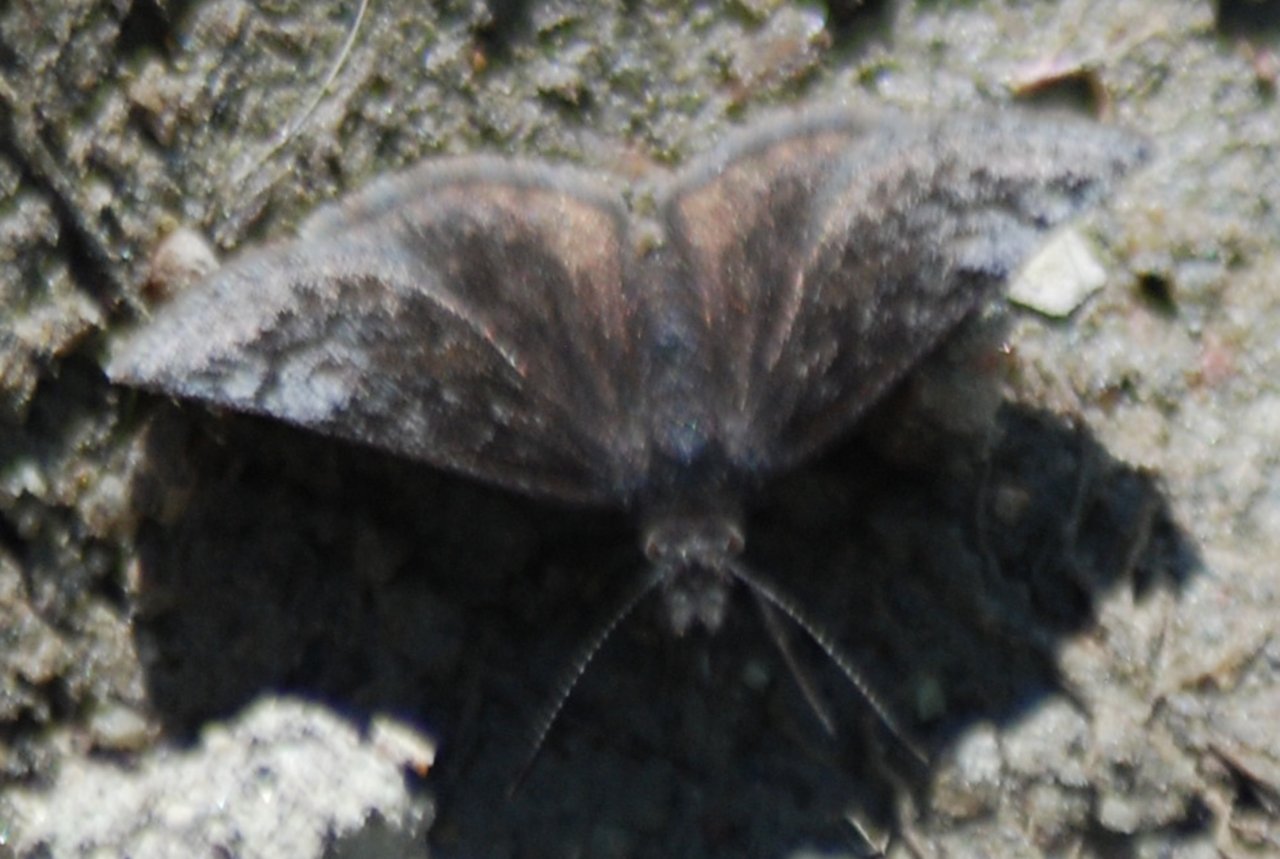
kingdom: Animalia
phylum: Arthropoda
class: Insecta
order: Lepidoptera
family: Hesperiidae
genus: Erynnis
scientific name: Erynnis icelus
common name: Dreamy Duskywing
